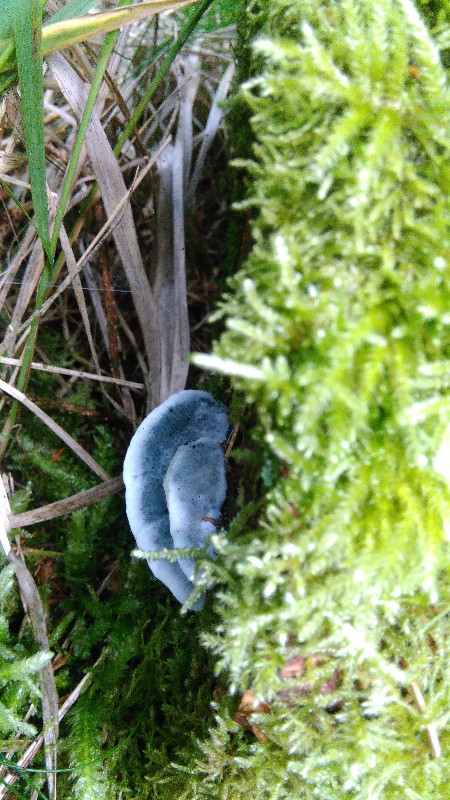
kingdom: Fungi
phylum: Basidiomycota
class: Agaricomycetes
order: Polyporales
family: Polyporaceae
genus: Cyanosporus
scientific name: Cyanosporus caesius
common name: blålig kødporesvamp
